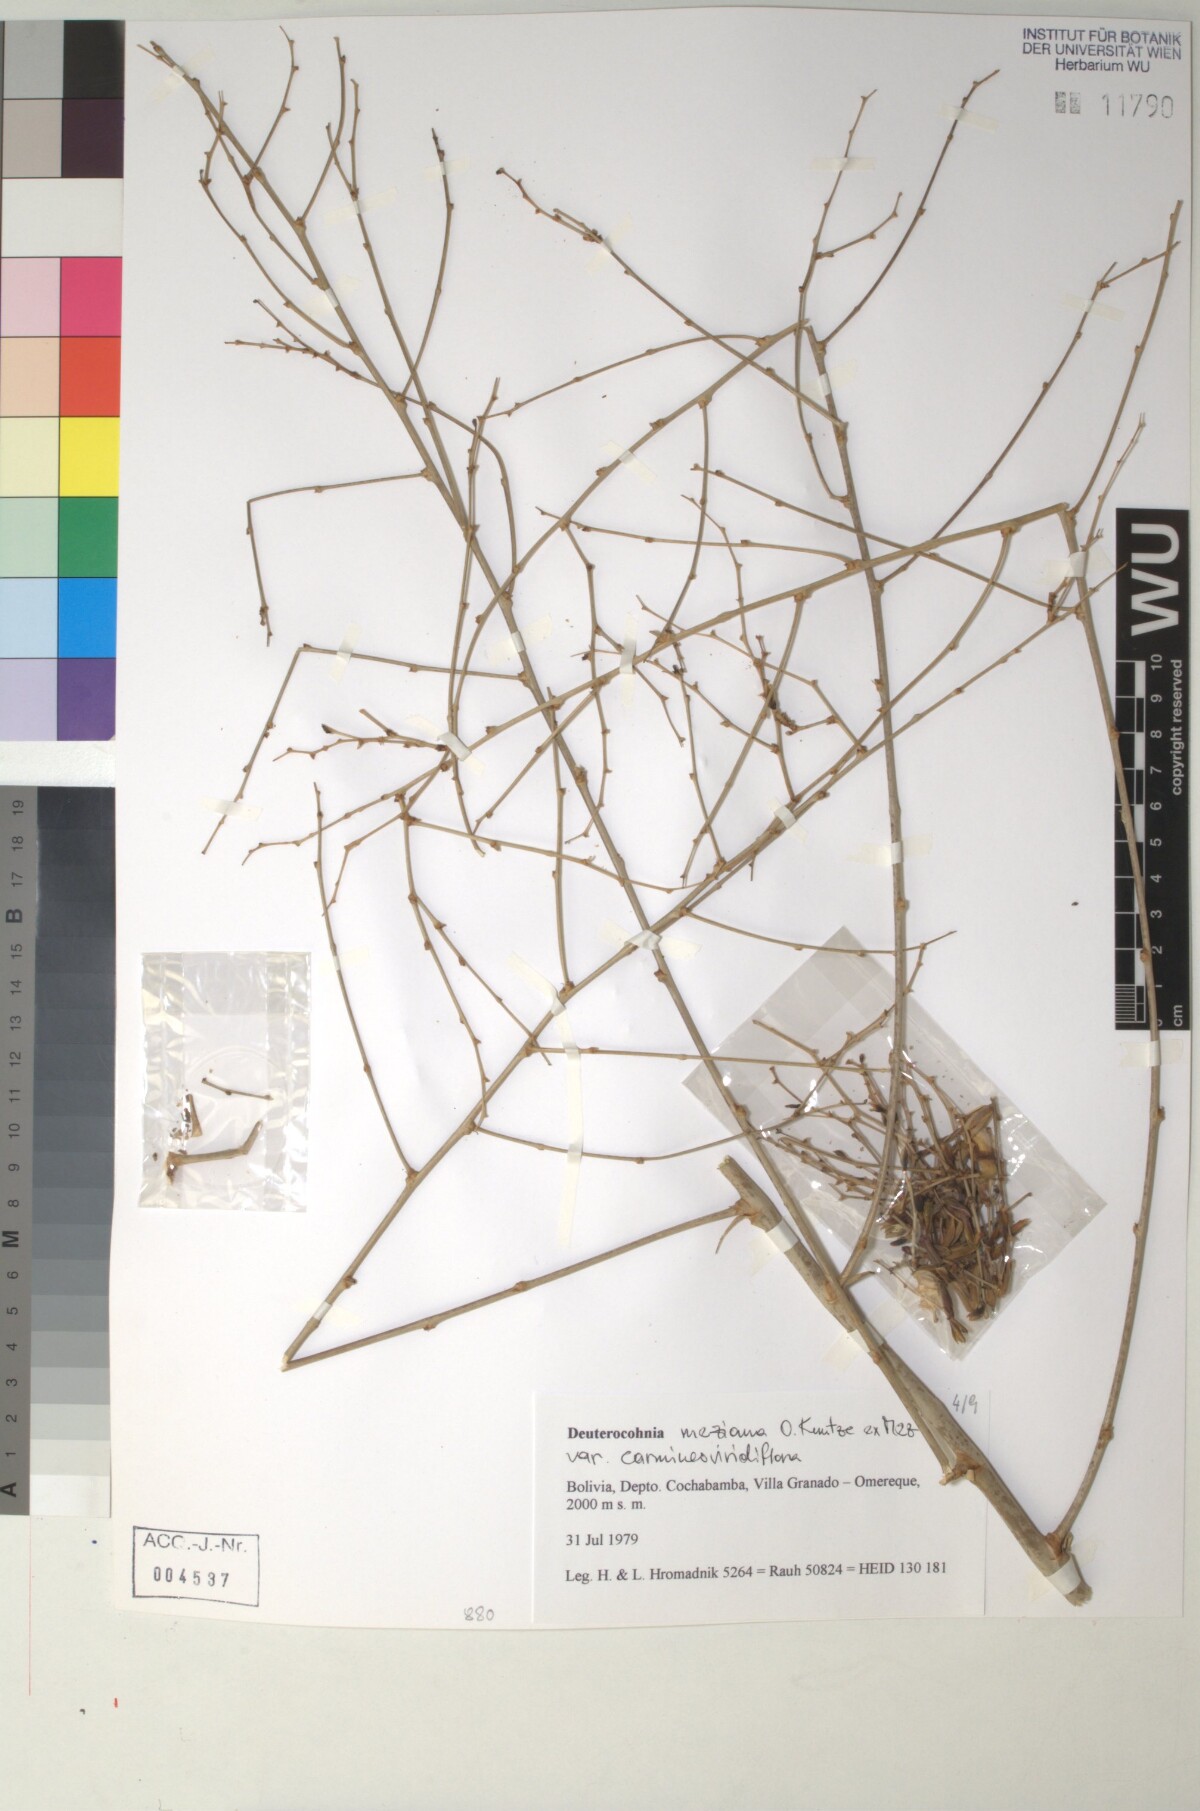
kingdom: Plantae
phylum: Tracheophyta
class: Liliopsida
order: Poales
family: Bromeliaceae
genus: Deuterocohnia
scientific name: Deuterocohnia meziana
